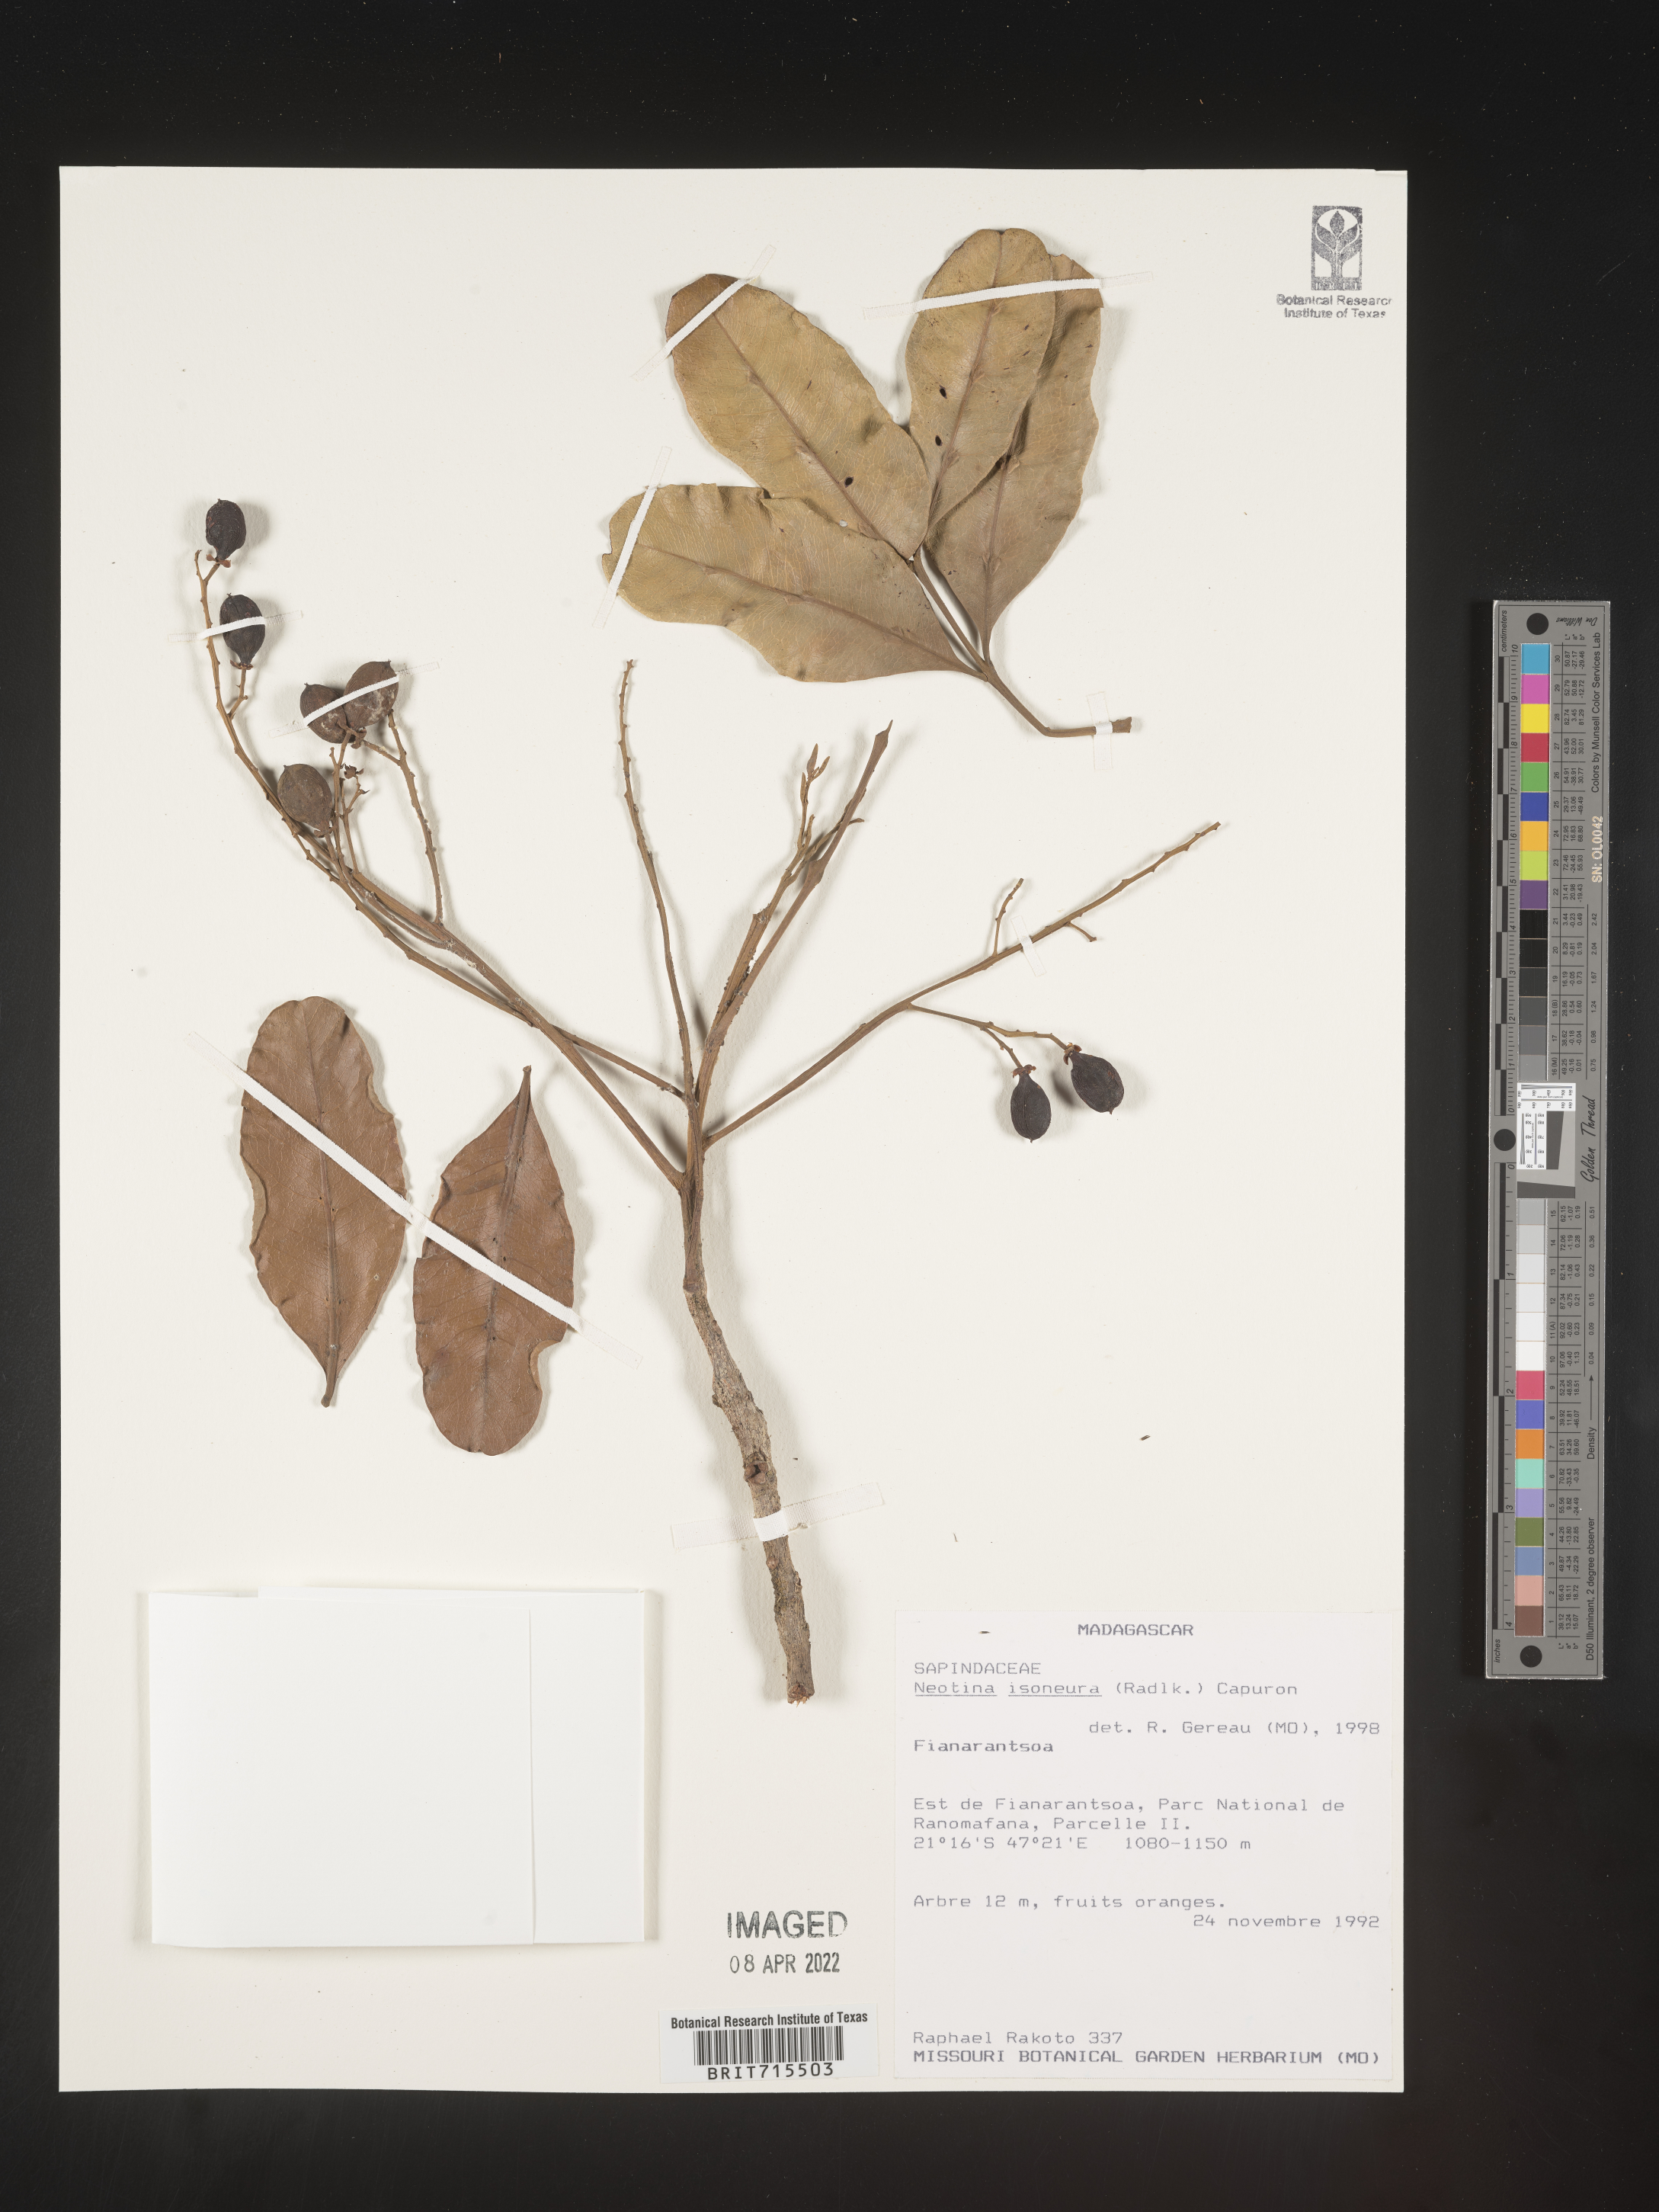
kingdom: Plantae
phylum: Tracheophyta
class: Magnoliopsida
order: Sapindales
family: Sapindaceae
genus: Tina
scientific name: Tina isoneura
